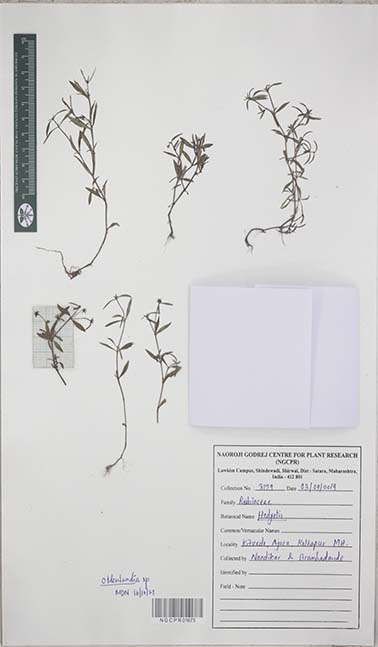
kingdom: Plantae
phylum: Tracheophyta
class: Magnoliopsida
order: Gentianales
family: Rubiaceae
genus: Oldenlandia
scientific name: Oldenlandia
